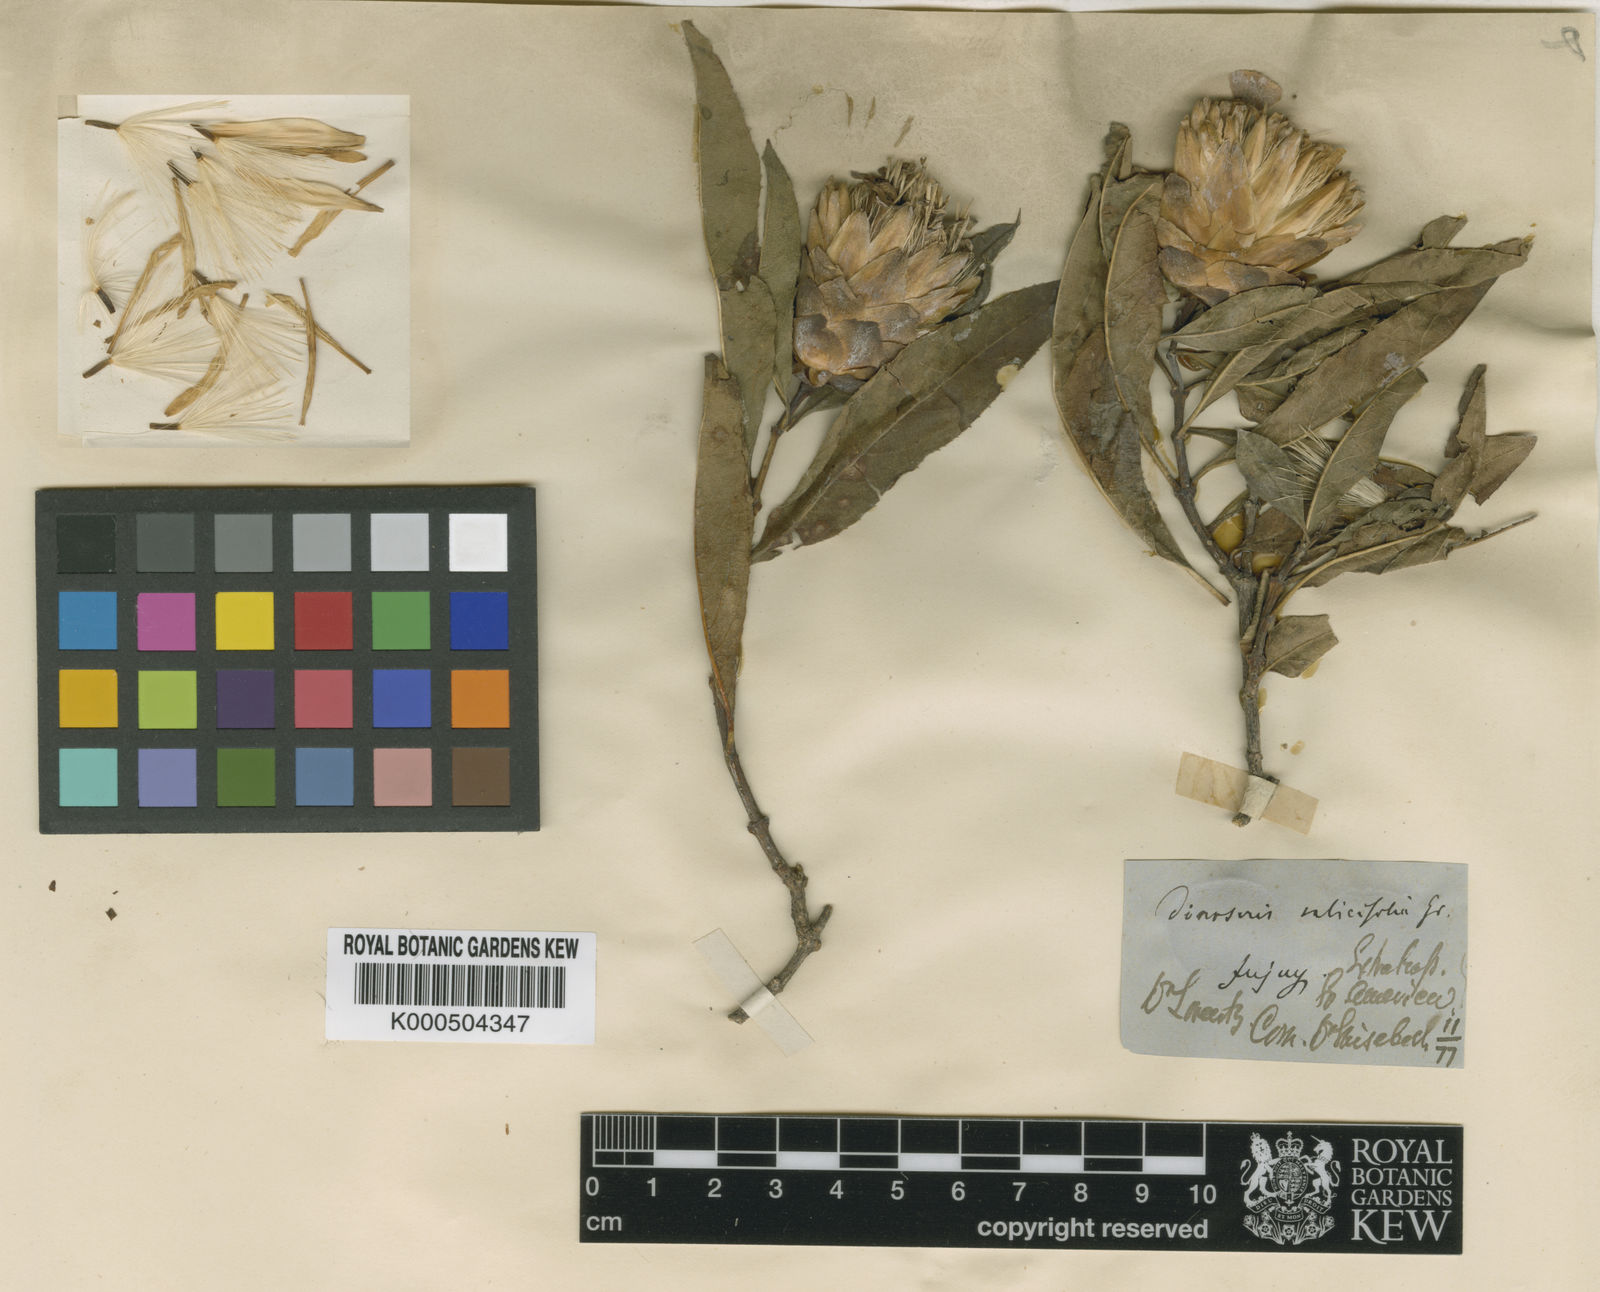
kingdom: Plantae
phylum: Tracheophyta
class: Magnoliopsida
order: Asterales
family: Asteraceae
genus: Hyaloseris
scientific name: Hyaloseris salicifolia
